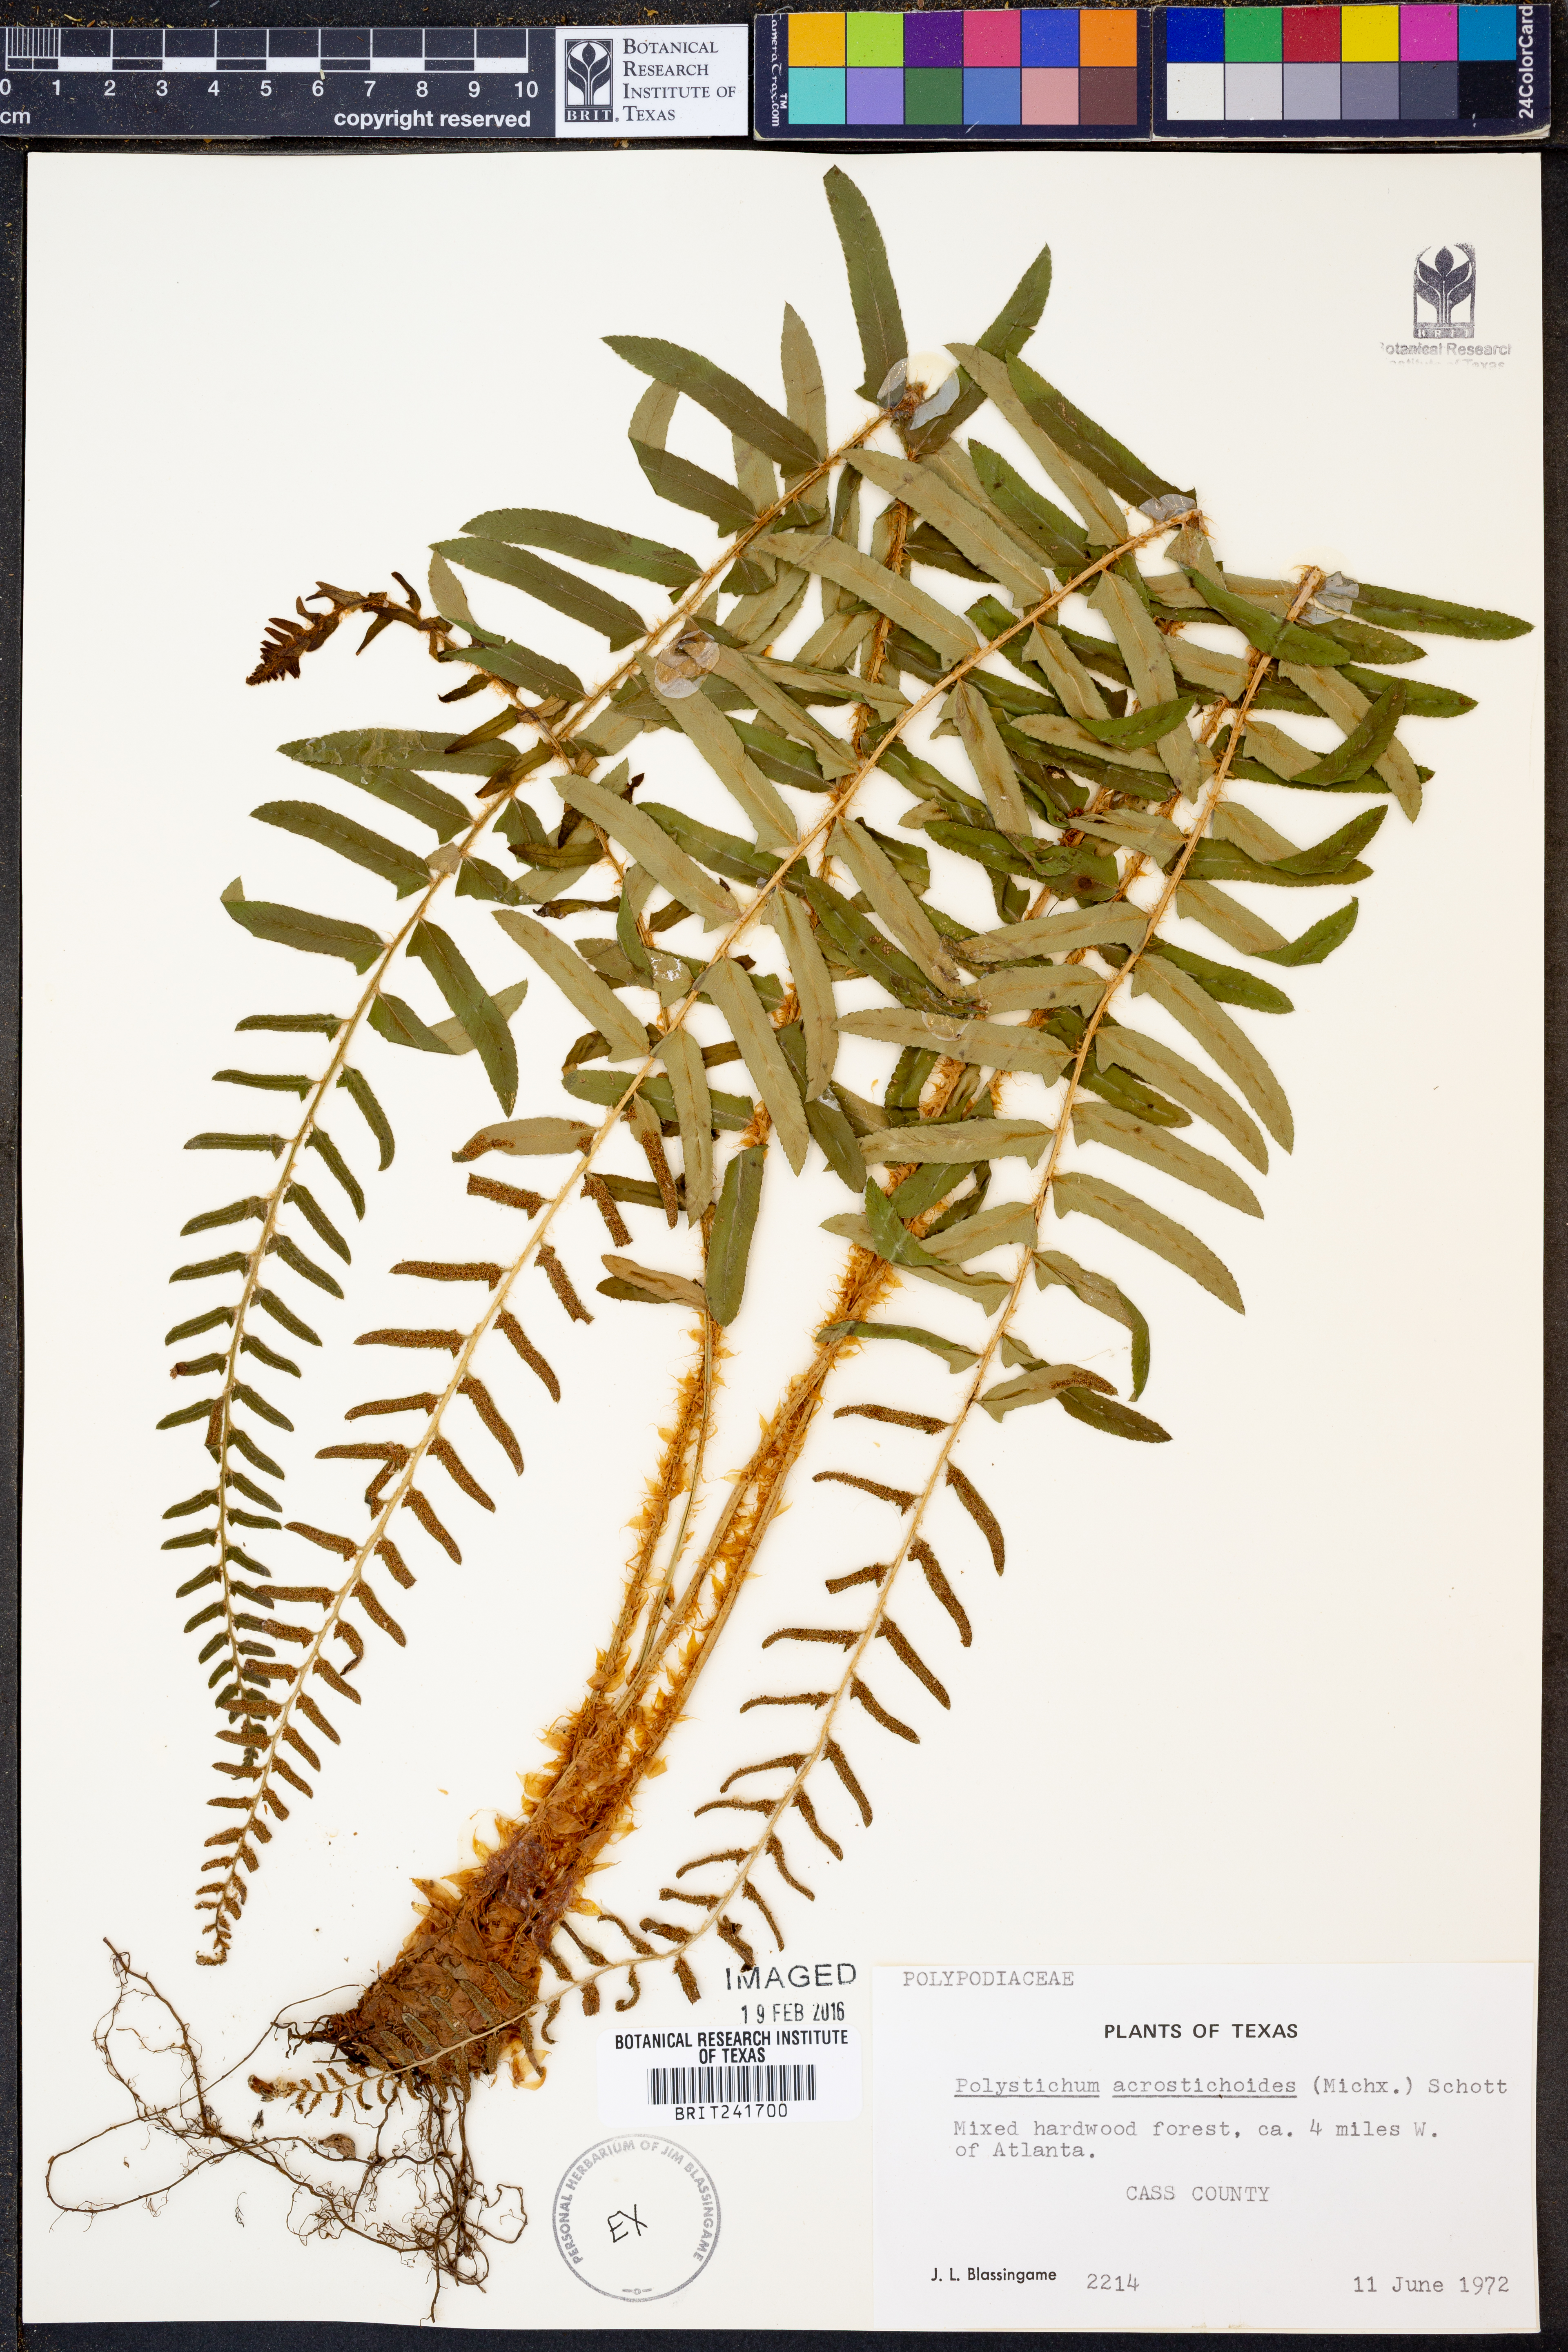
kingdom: Plantae
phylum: Tracheophyta
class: Polypodiopsida
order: Polypodiales
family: Dryopteridaceae
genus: Polystichum
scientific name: Polystichum acrostichoides
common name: Christmas fern
